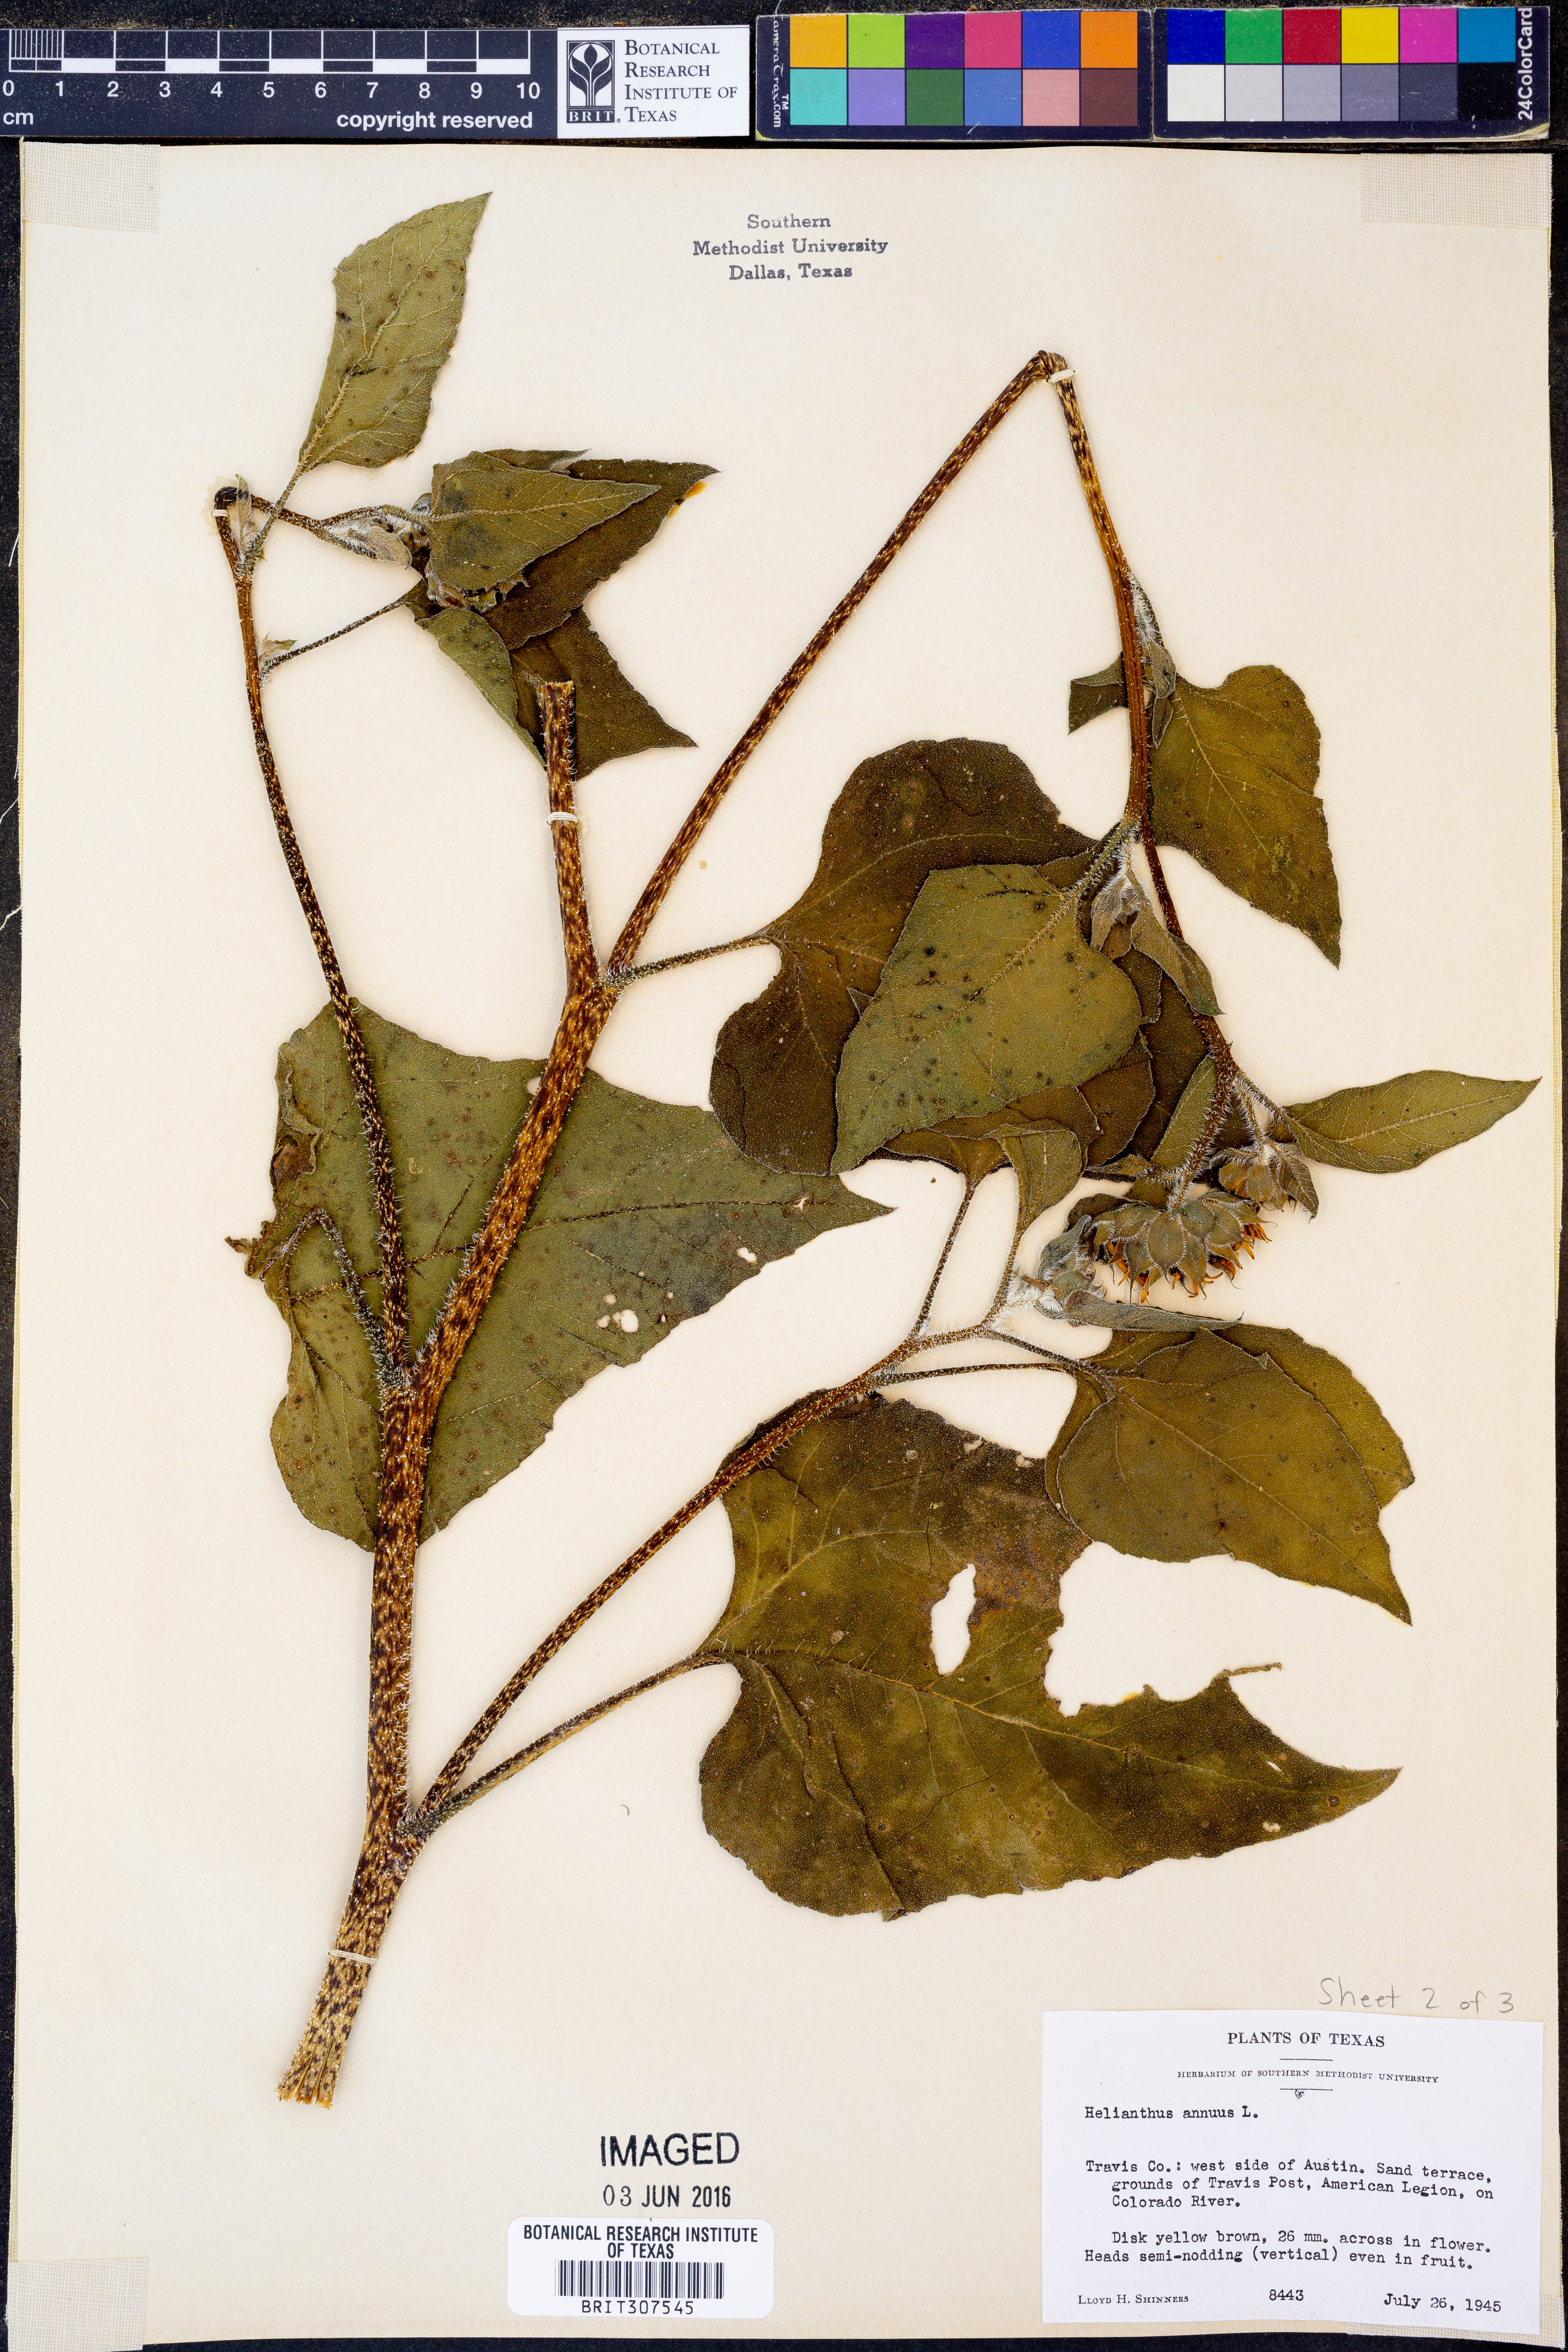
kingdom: Plantae
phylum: Tracheophyta
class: Magnoliopsida
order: Asterales
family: Asteraceae
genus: Helianthus
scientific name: Helianthus annuus
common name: Sunflower
